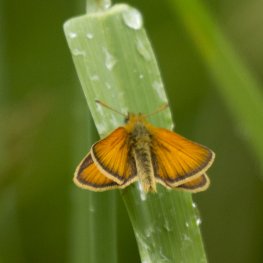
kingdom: Animalia
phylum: Arthropoda
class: Insecta
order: Lepidoptera
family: Hesperiidae
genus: Thymelicus
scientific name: Thymelicus lineola
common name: European Skipper
